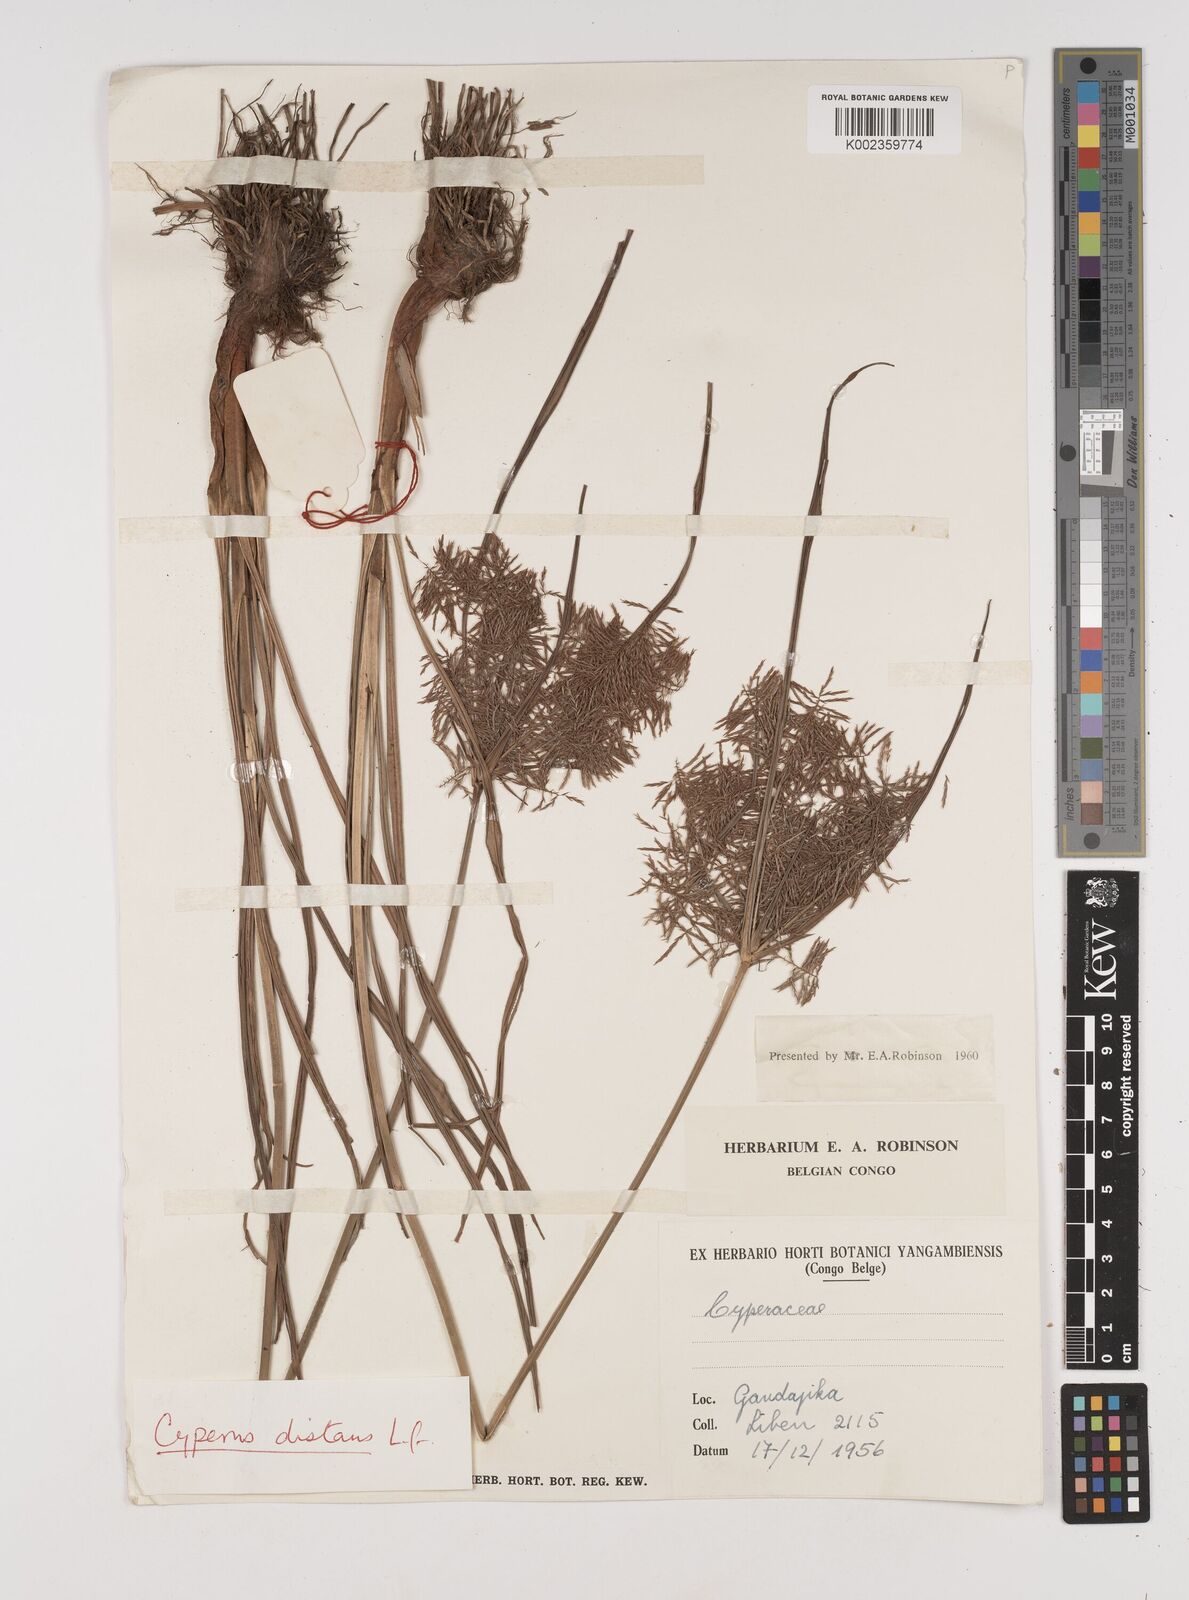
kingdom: Plantae
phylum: Tracheophyta
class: Liliopsida
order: Poales
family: Cyperaceae
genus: Cyperus
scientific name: Cyperus distans
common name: Slender cyperus
